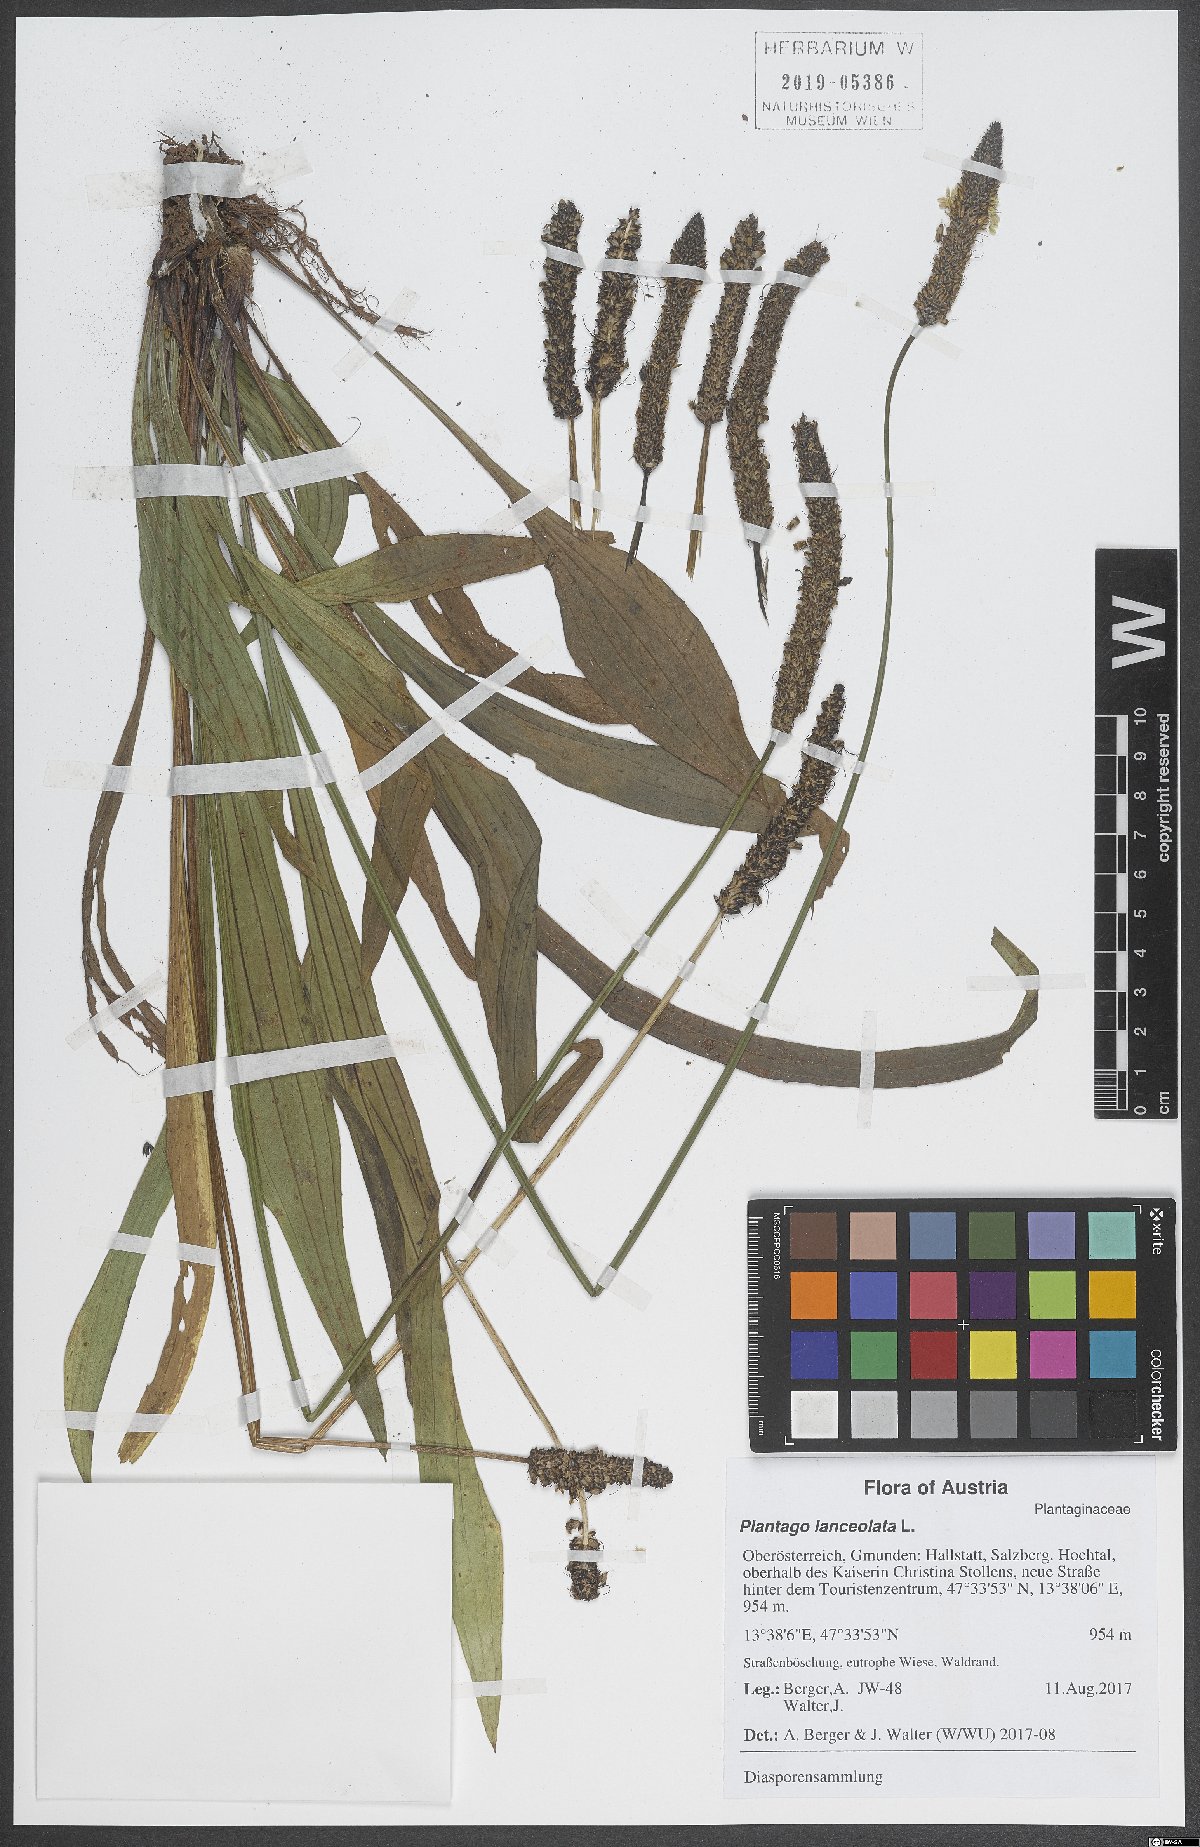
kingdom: Plantae
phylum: Tracheophyta
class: Magnoliopsida
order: Lamiales
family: Plantaginaceae
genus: Plantago
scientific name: Plantago lanceolata
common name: Ribwort plantain
